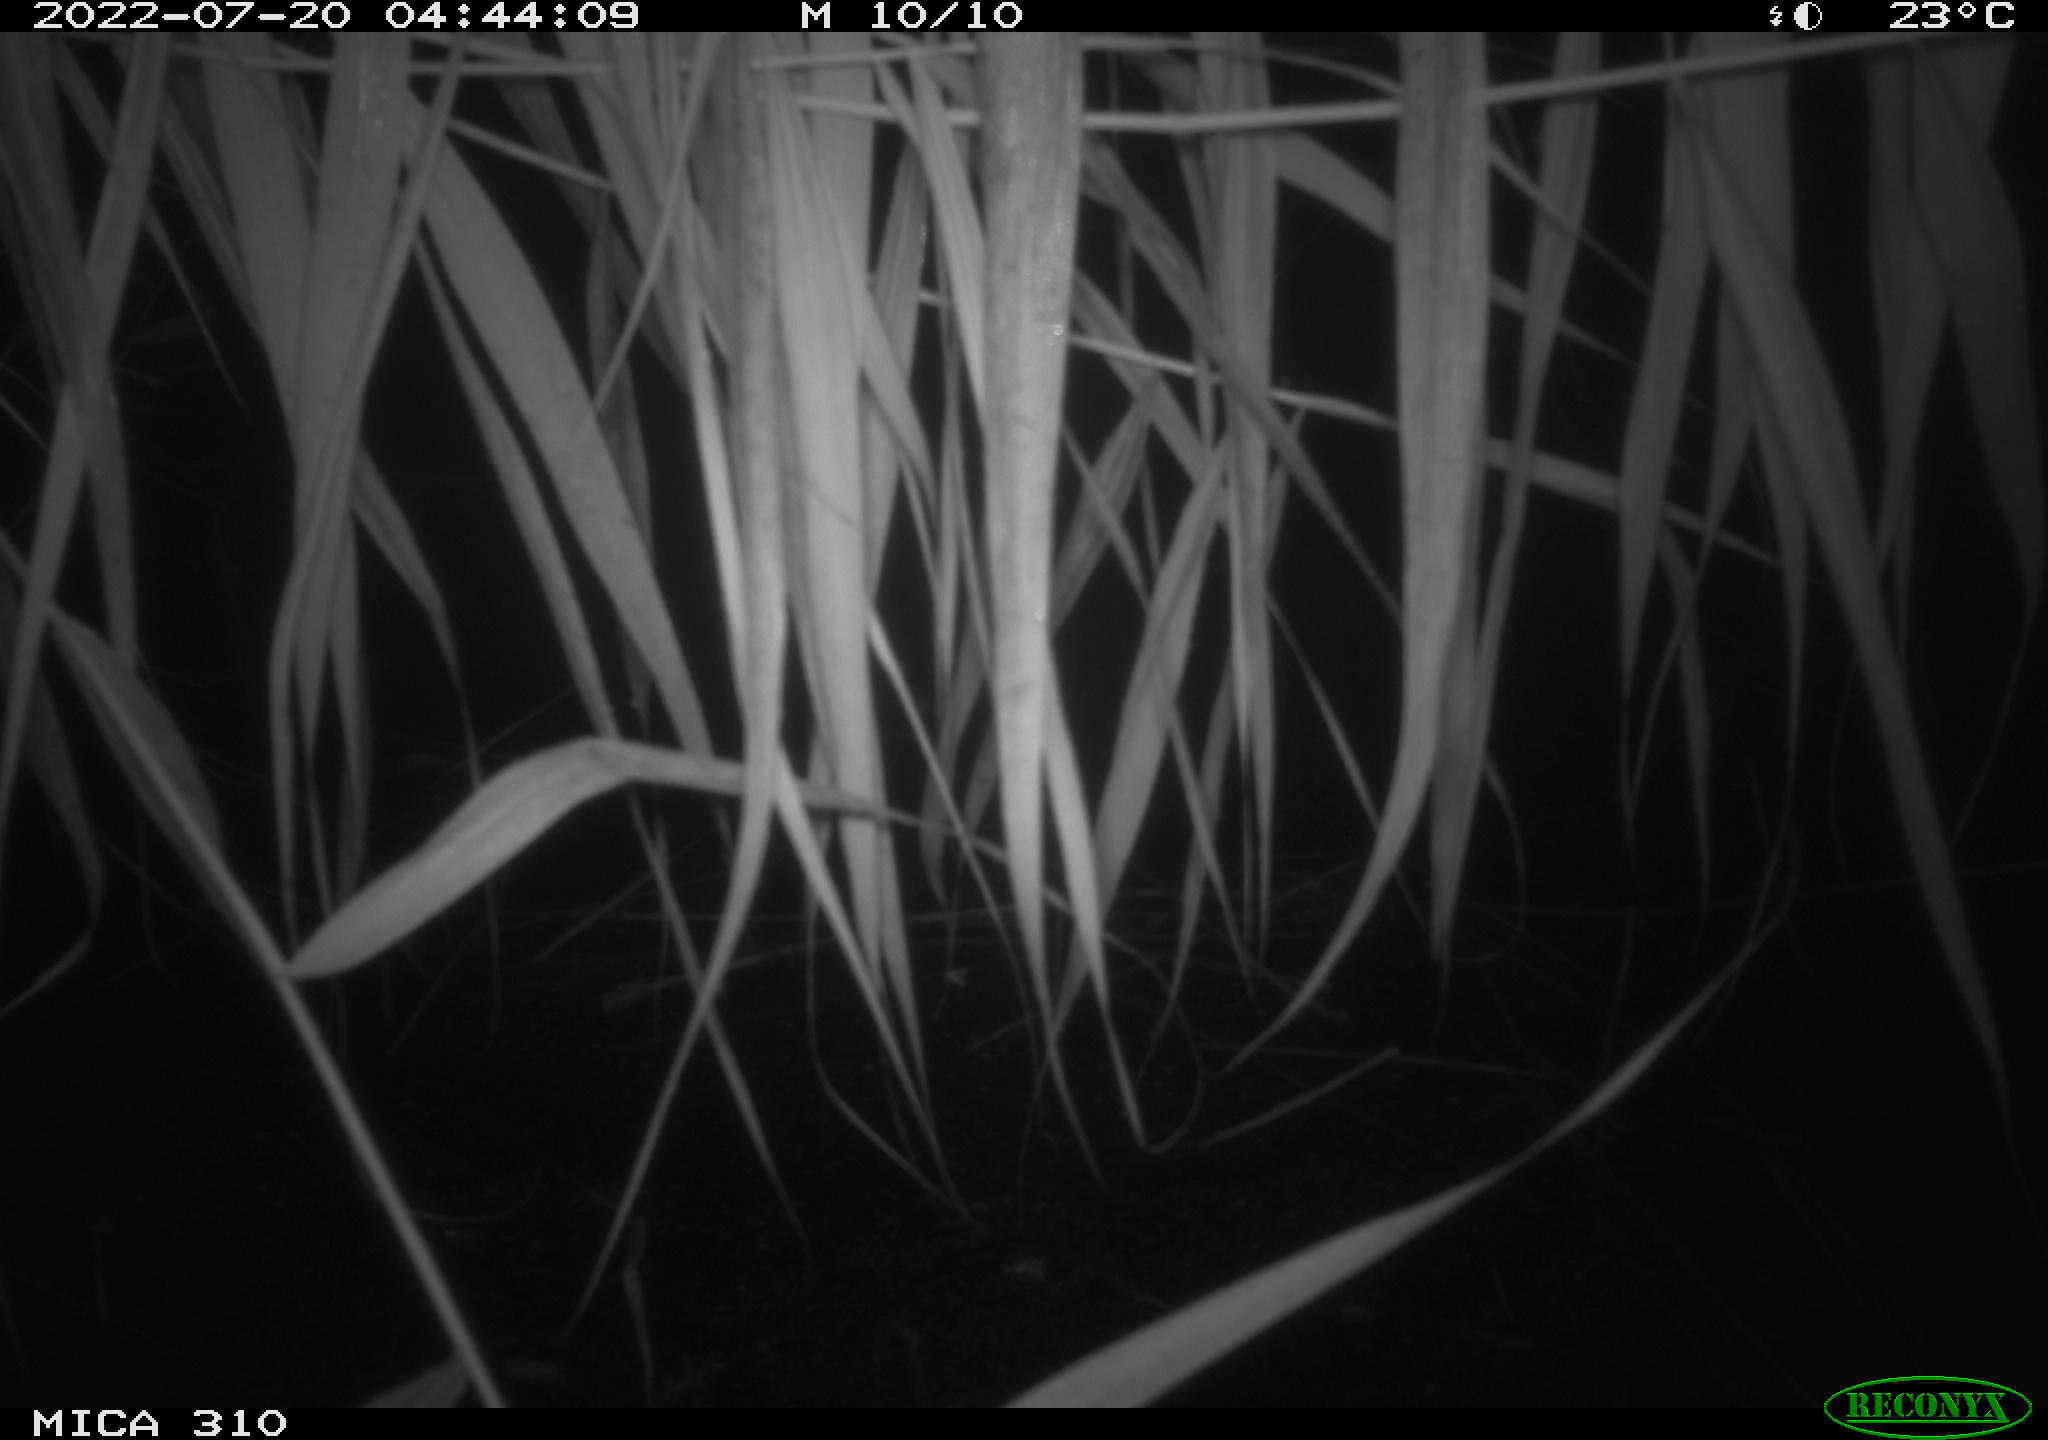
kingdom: Animalia
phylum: Chordata
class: Aves
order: Anseriformes
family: Anatidae
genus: Anas
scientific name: Anas platyrhynchos
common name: Mallard
